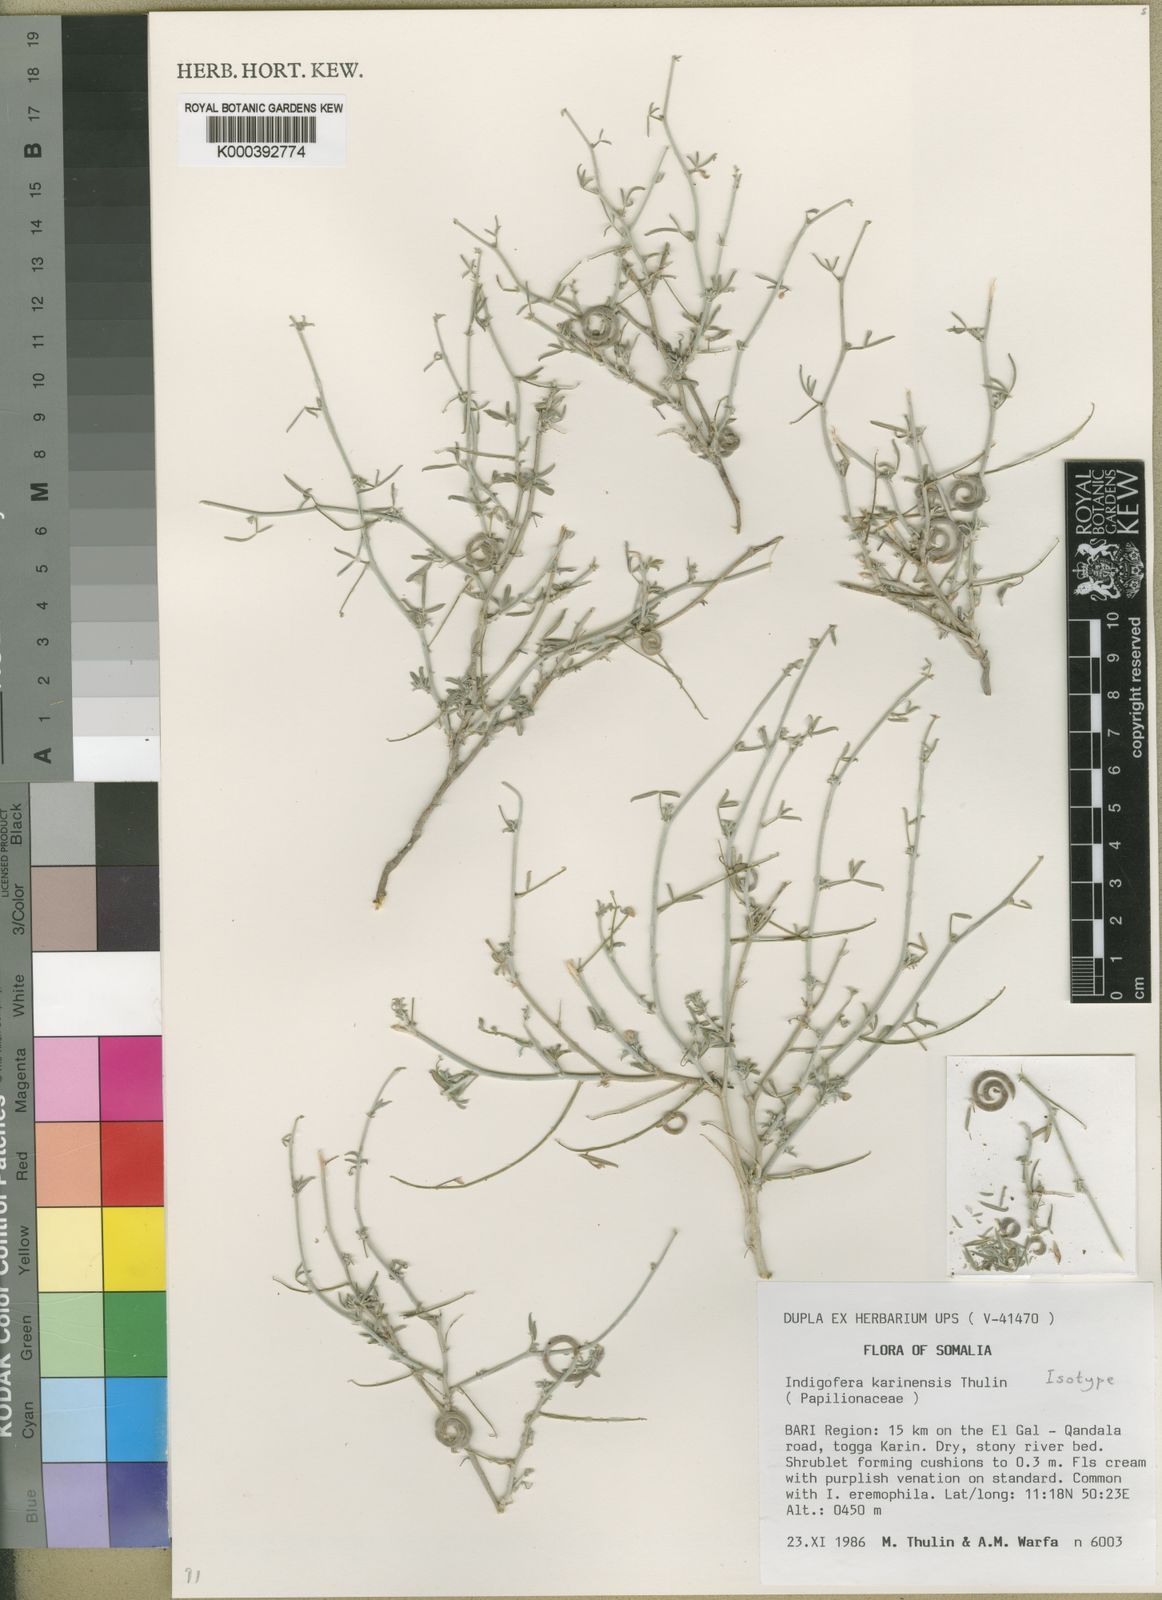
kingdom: Plantae
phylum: Tracheophyta
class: Magnoliopsida
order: Fabales
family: Fabaceae
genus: Indigofera
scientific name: Indigofera karkarensis
